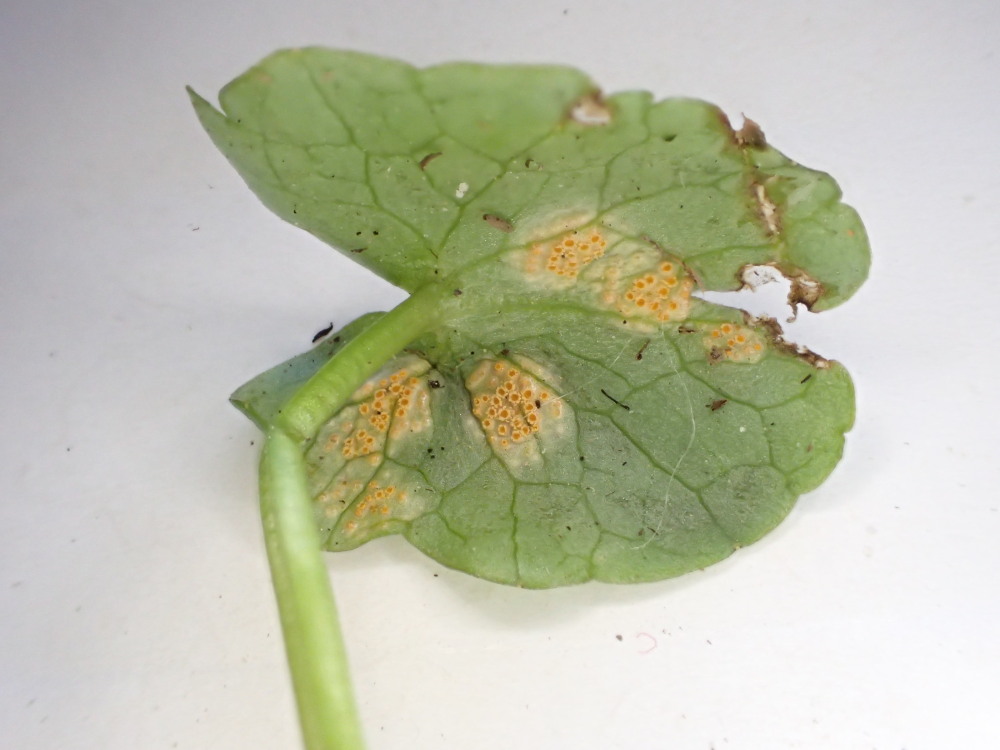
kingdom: Fungi
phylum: Basidiomycota
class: Pucciniomycetes
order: Pucciniales
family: Pucciniaceae
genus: Uromyces
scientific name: Uromyces dactylidis
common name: ranunkel-encellerust
